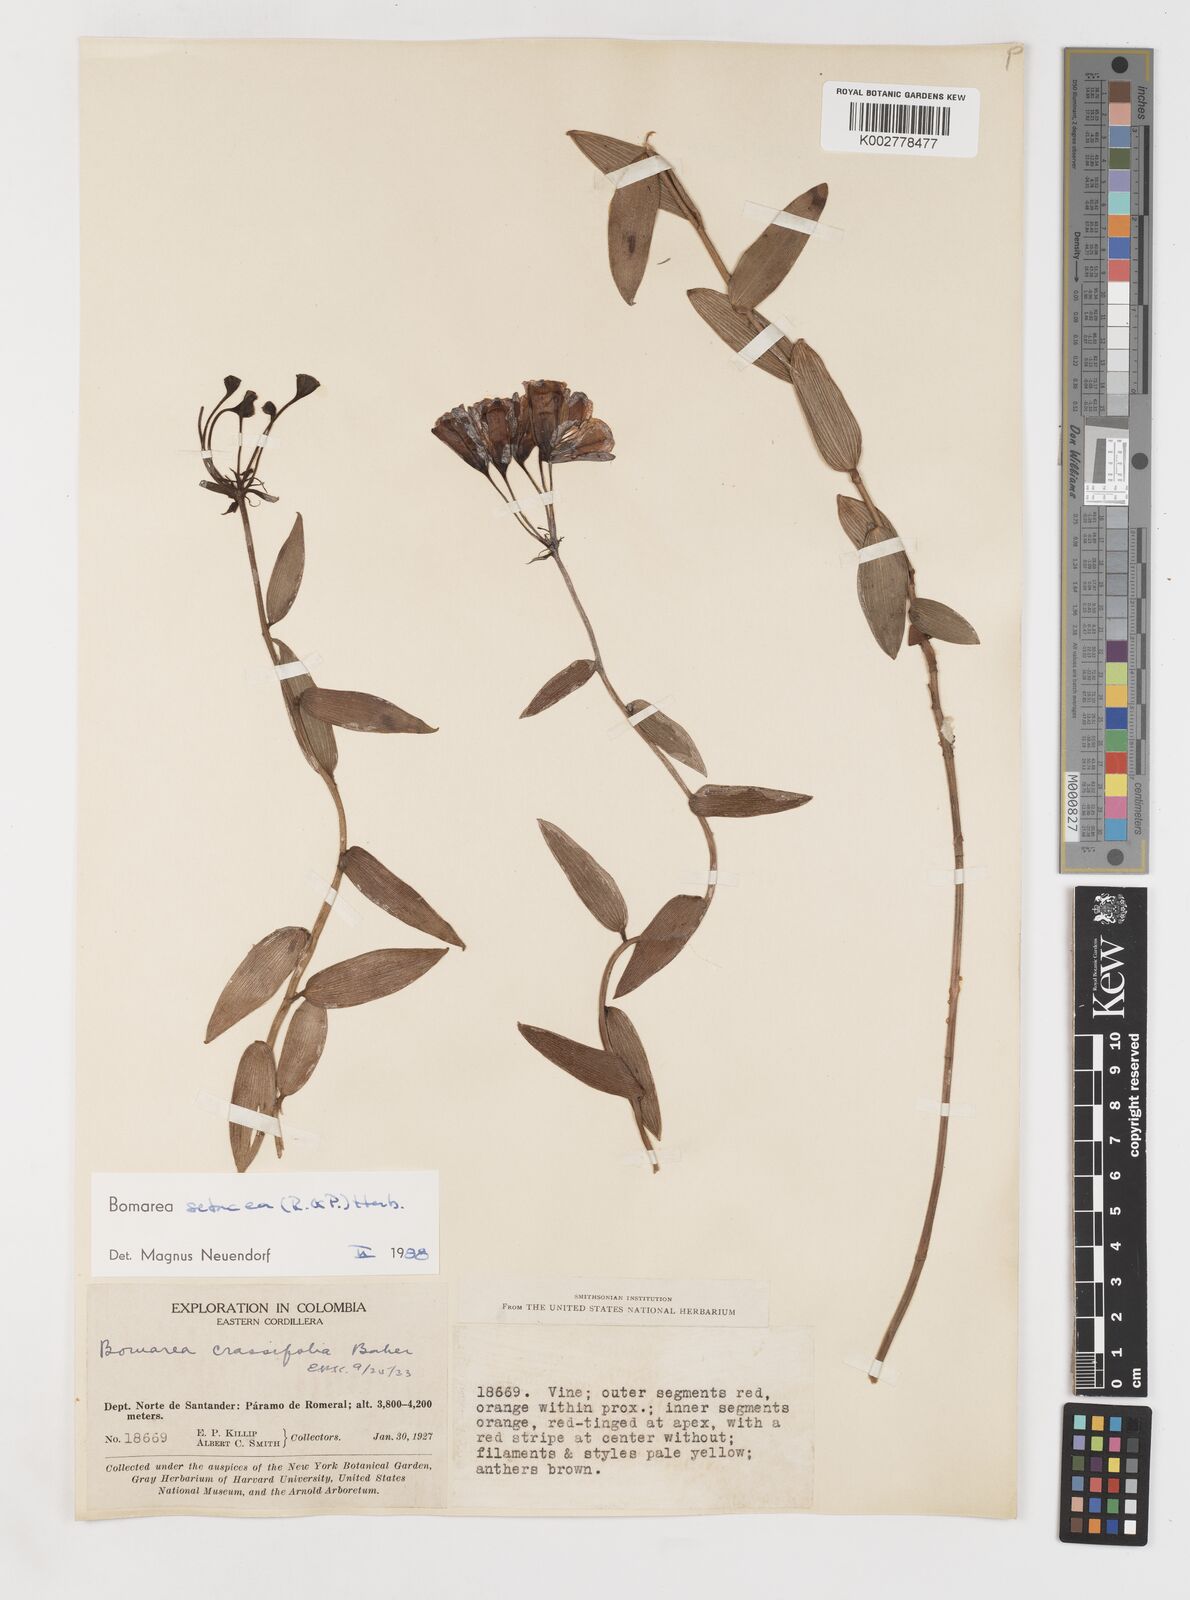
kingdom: Plantae
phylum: Tracheophyta
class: Liliopsida
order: Liliales
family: Alstroemeriaceae
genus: Bomarea
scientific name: Bomarea setacea
